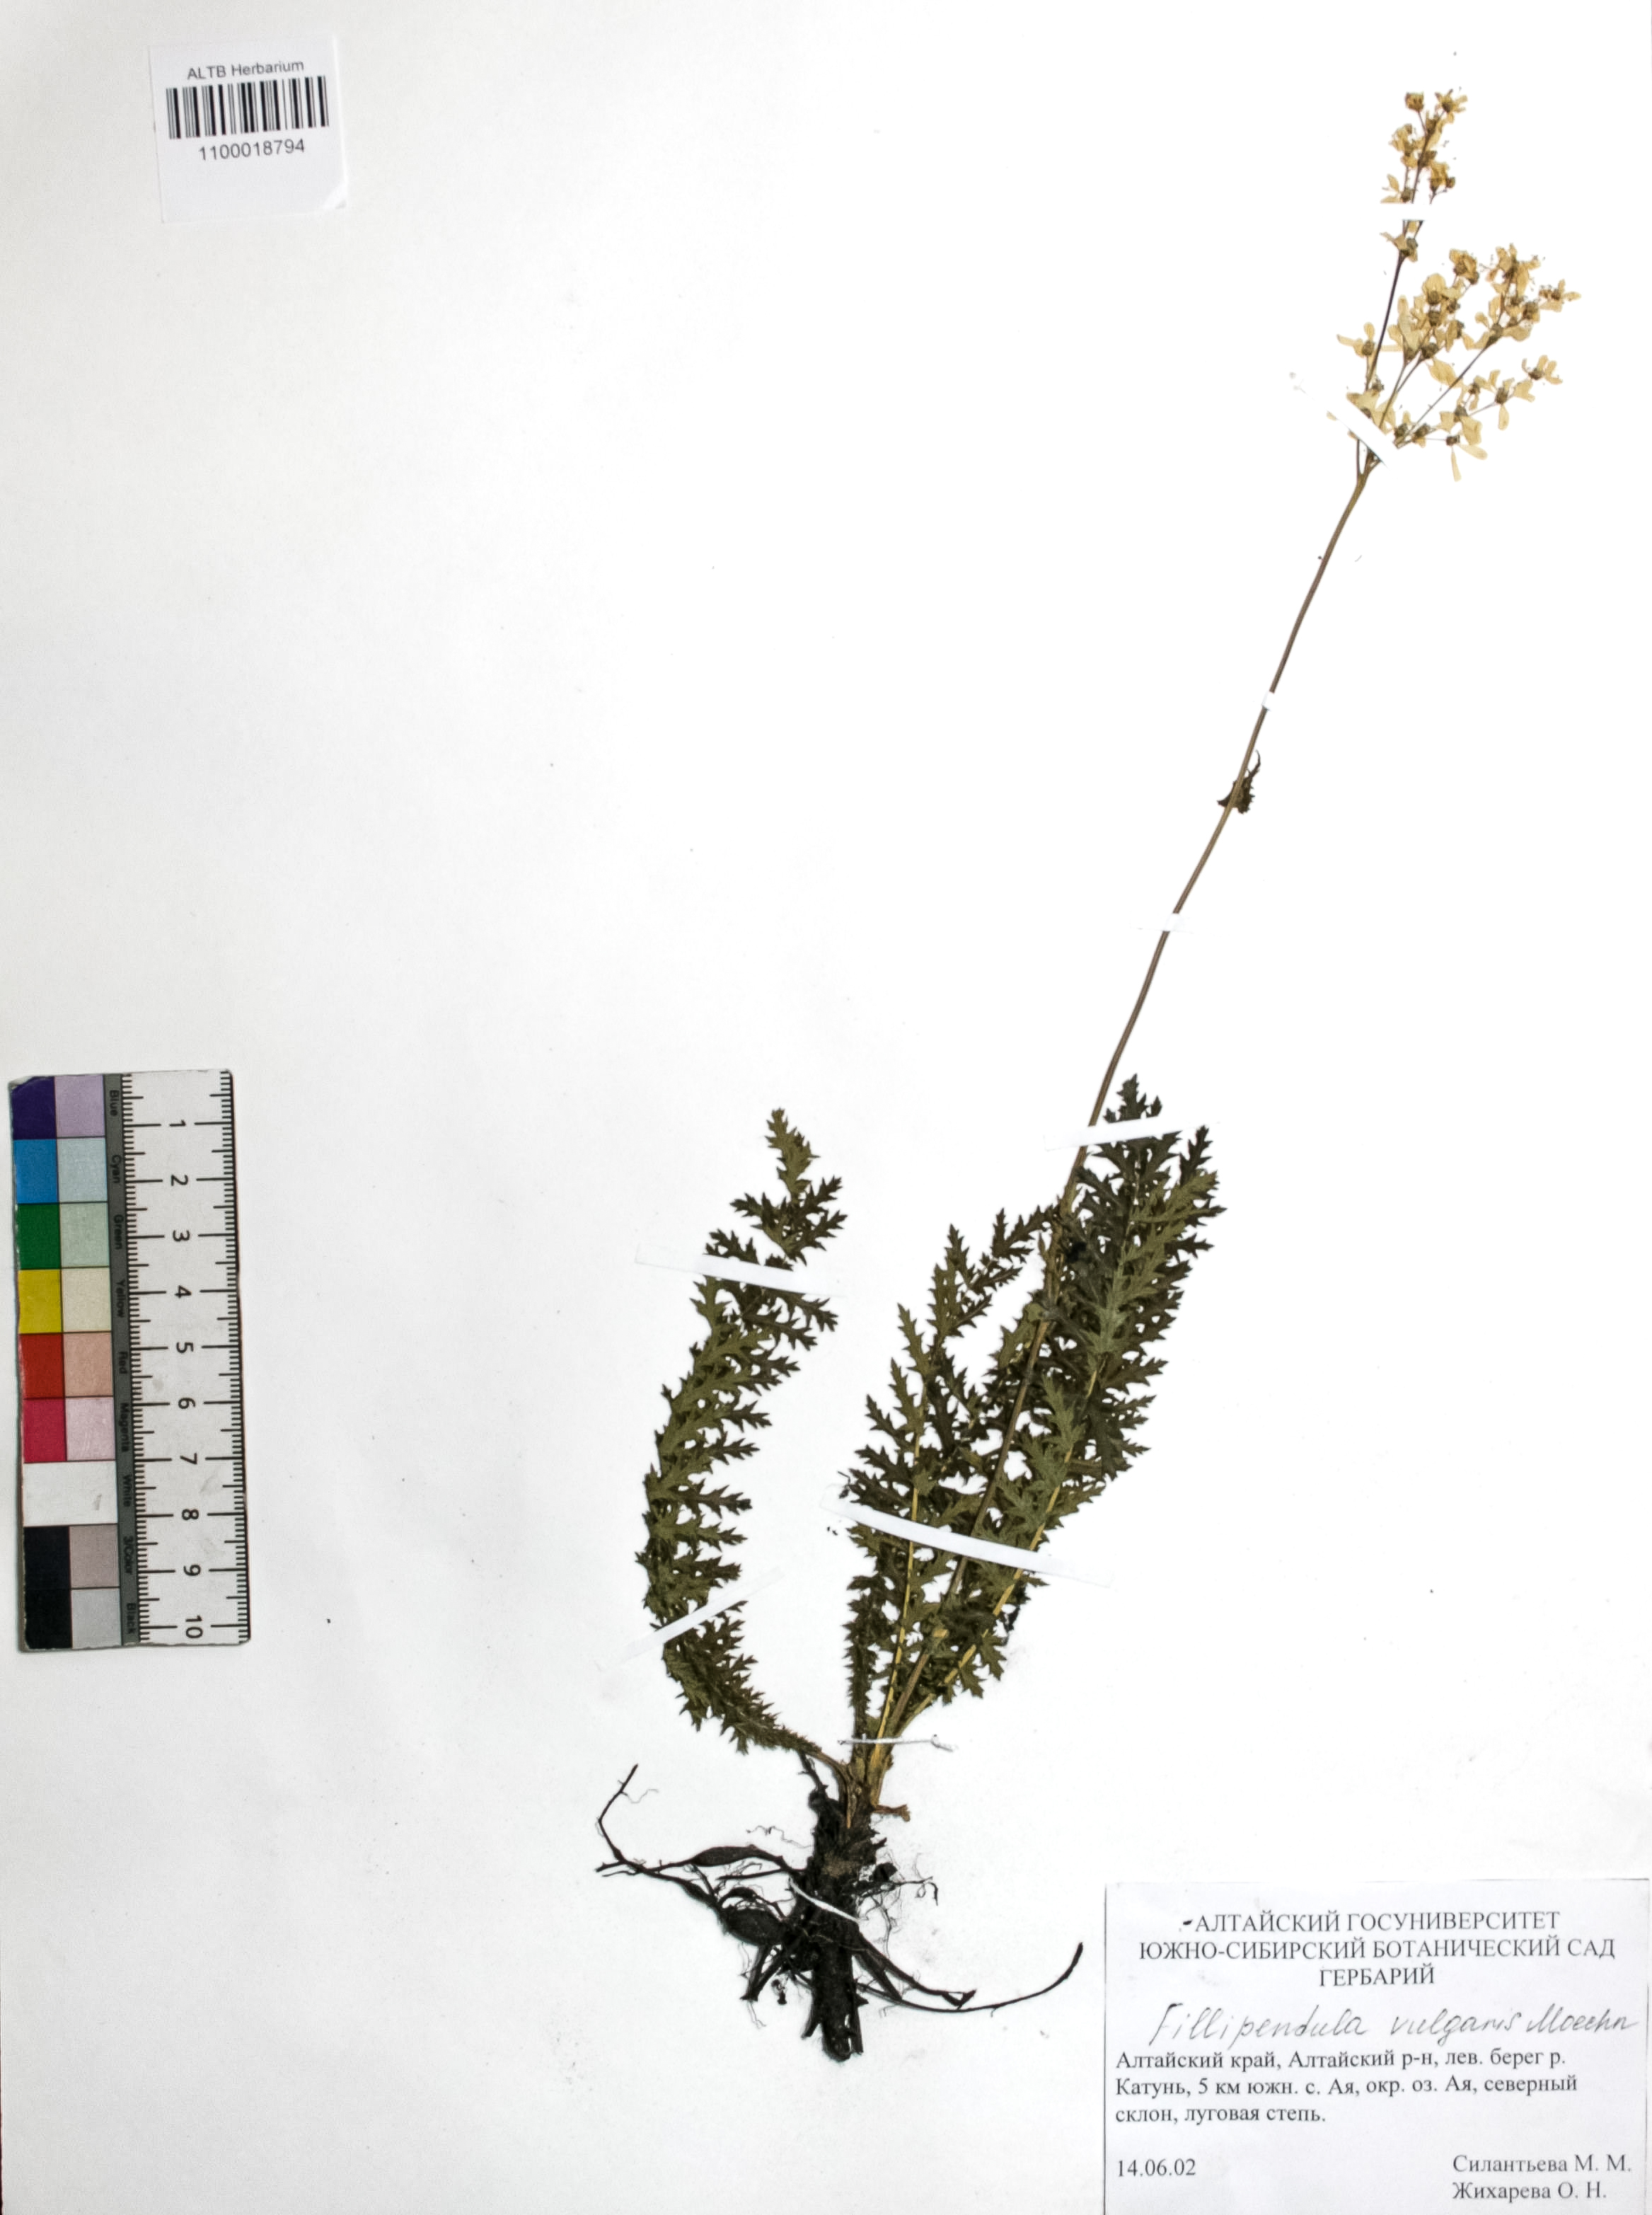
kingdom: Plantae
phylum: Tracheophyta
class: Magnoliopsida
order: Rosales
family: Rosaceae
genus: Filipendula
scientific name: Filipendula vulgaris
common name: Dropwort
